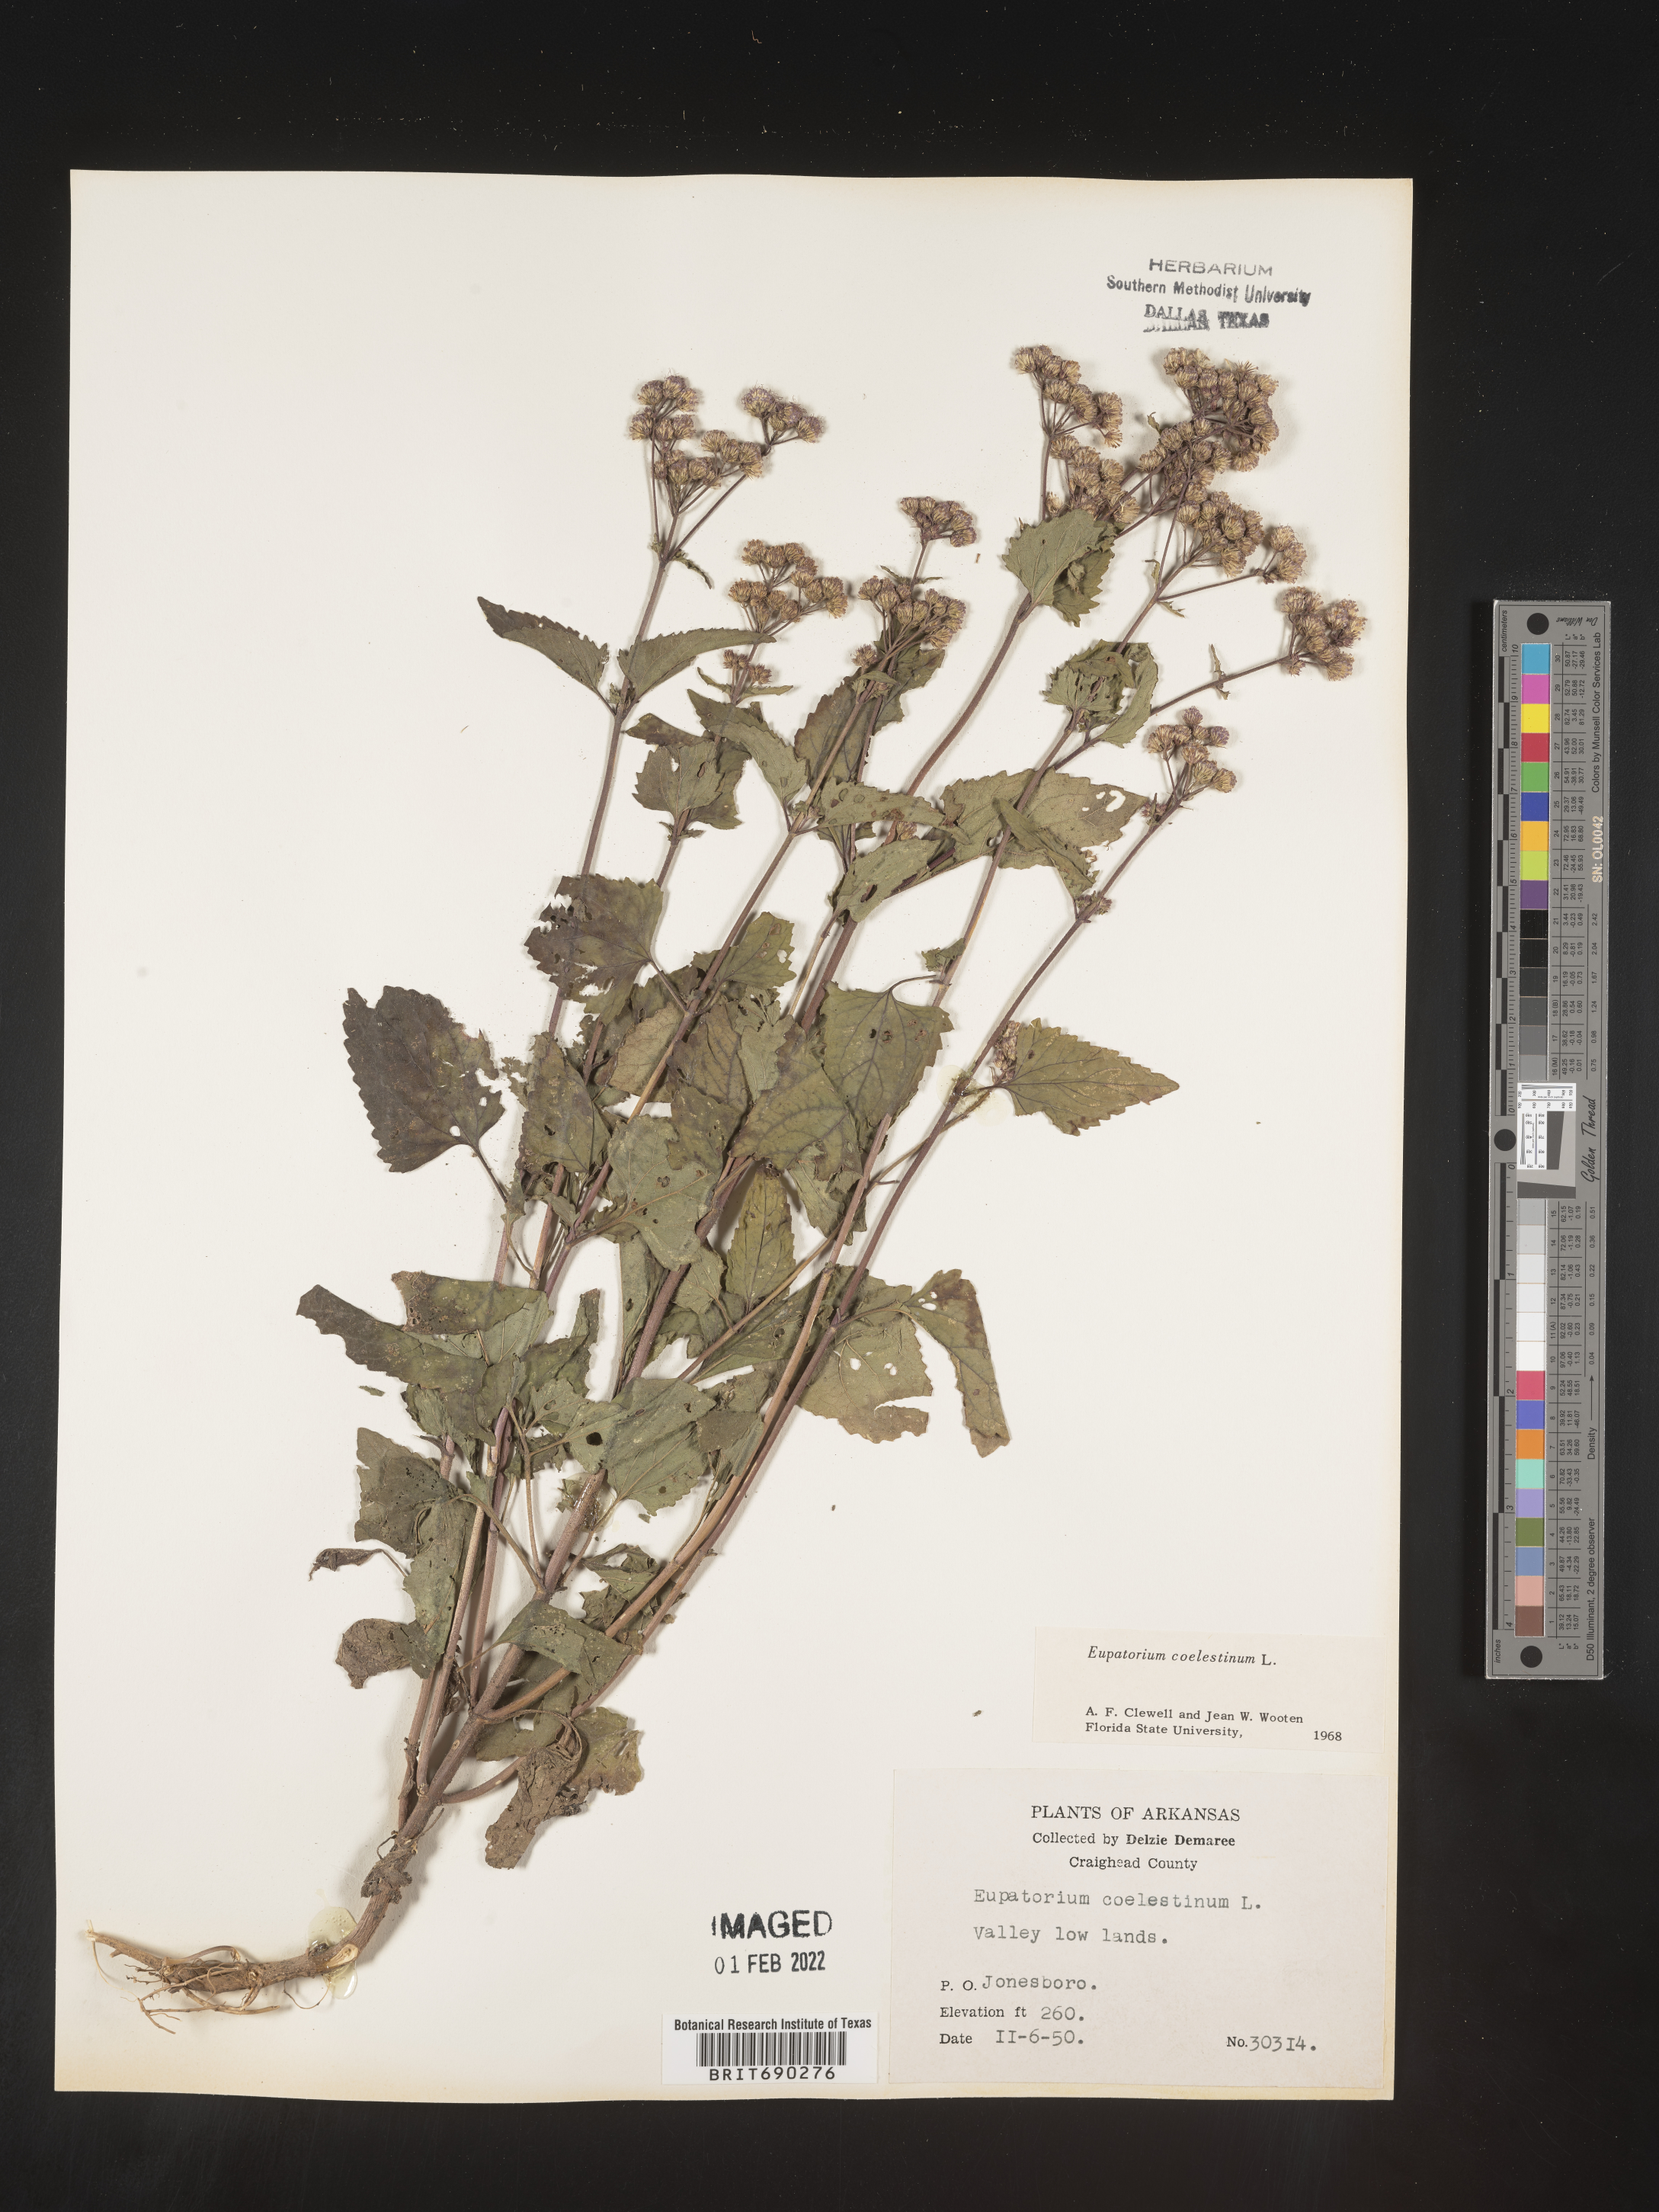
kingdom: Plantae
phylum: Tracheophyta
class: Magnoliopsida
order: Asterales
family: Asteraceae
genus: Conoclinium
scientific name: Conoclinium coelestinum
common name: Blue mistflower
